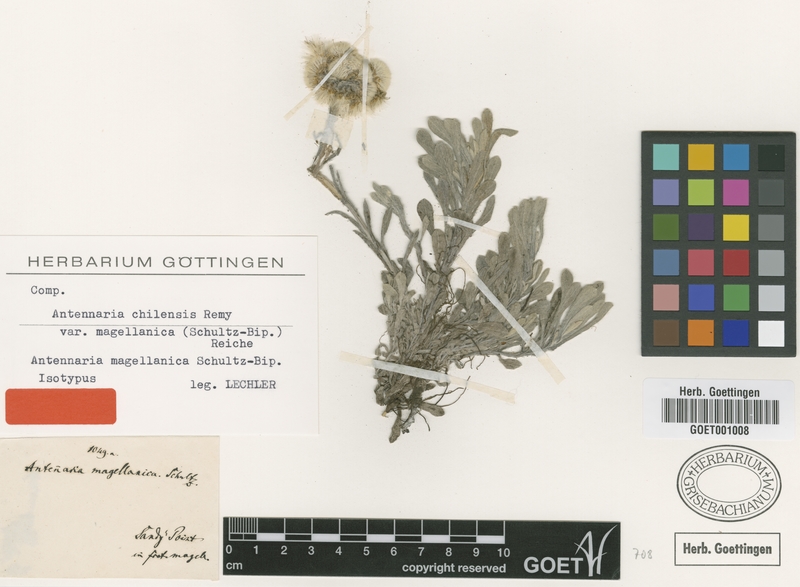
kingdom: Plantae
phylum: Tracheophyta
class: Magnoliopsida
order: Asterales
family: Asteraceae
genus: Antennaria
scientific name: Antennaria chilensis
